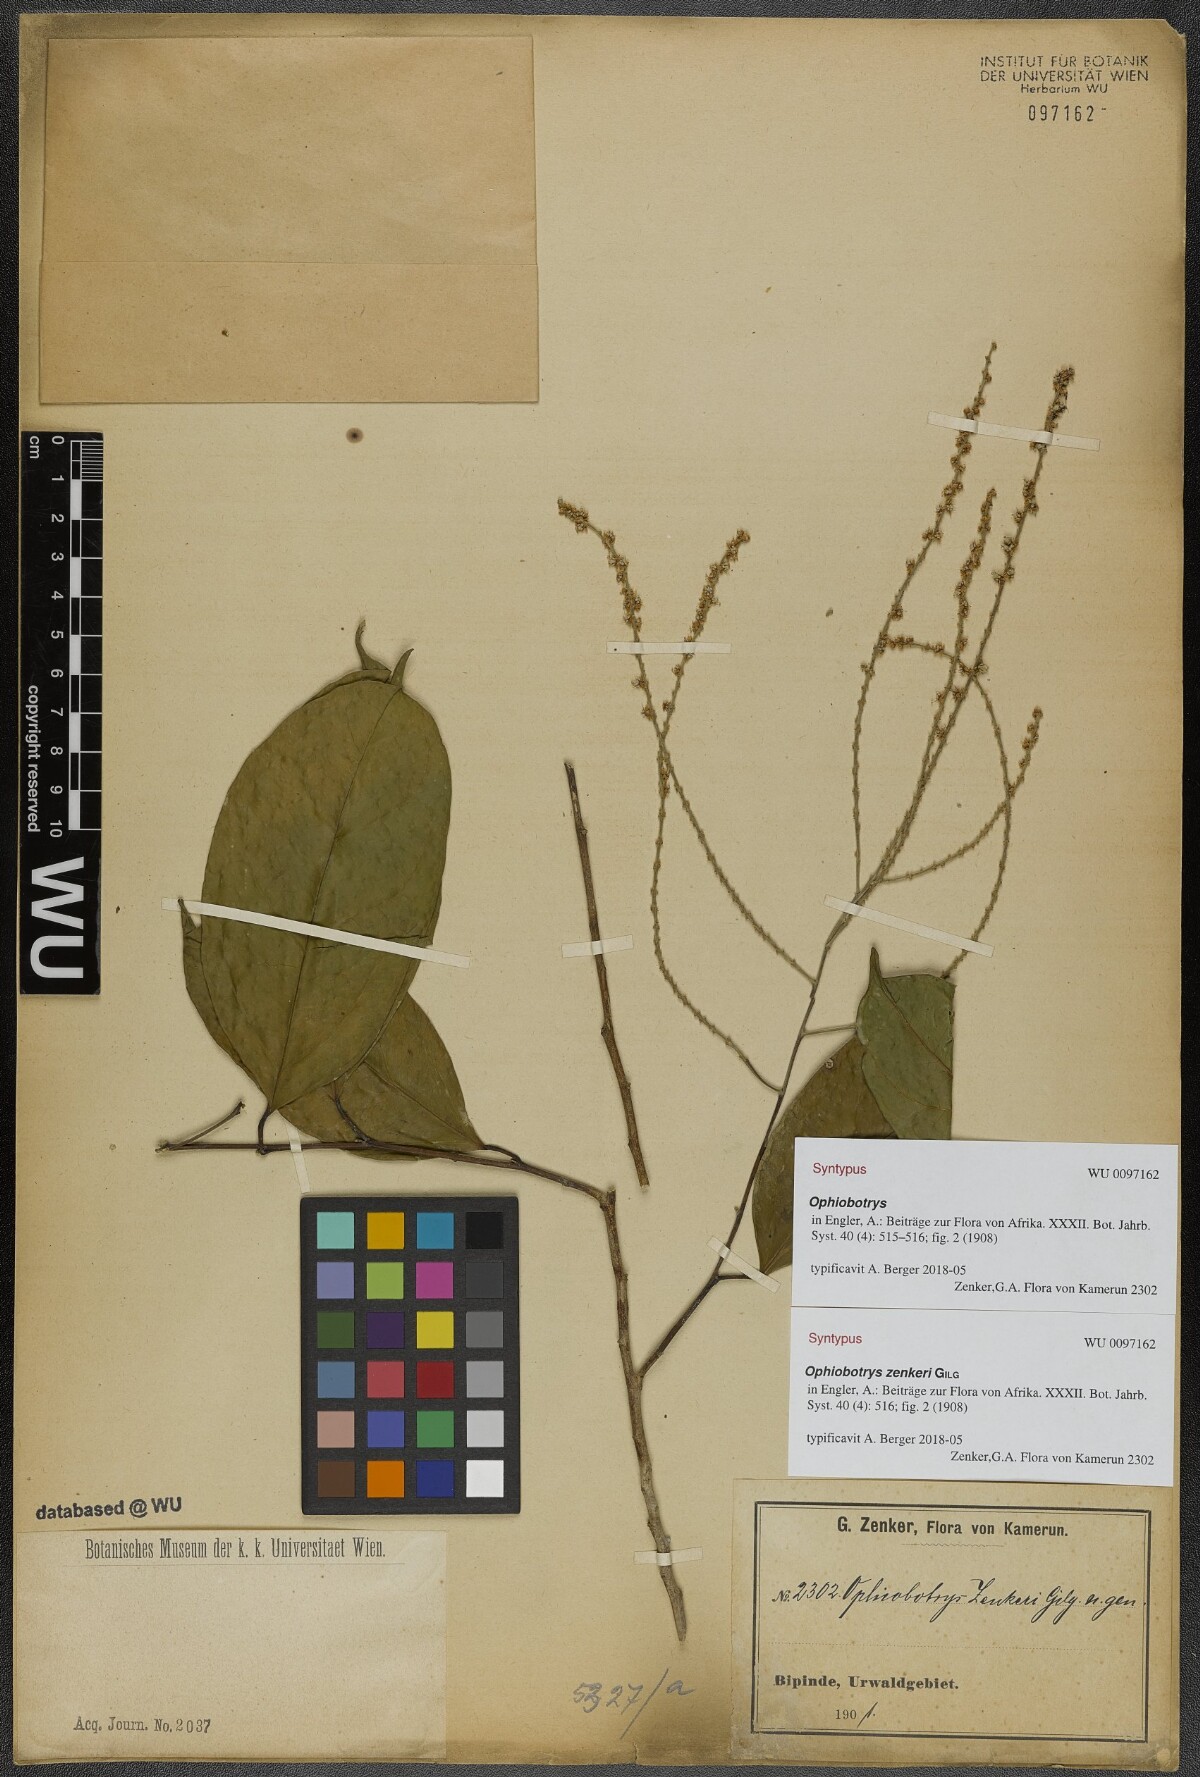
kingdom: Plantae
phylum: Tracheophyta
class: Magnoliopsida
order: Malpighiales
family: Salicaceae
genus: Ophiobotrys
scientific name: Ophiobotrys zenkeri
